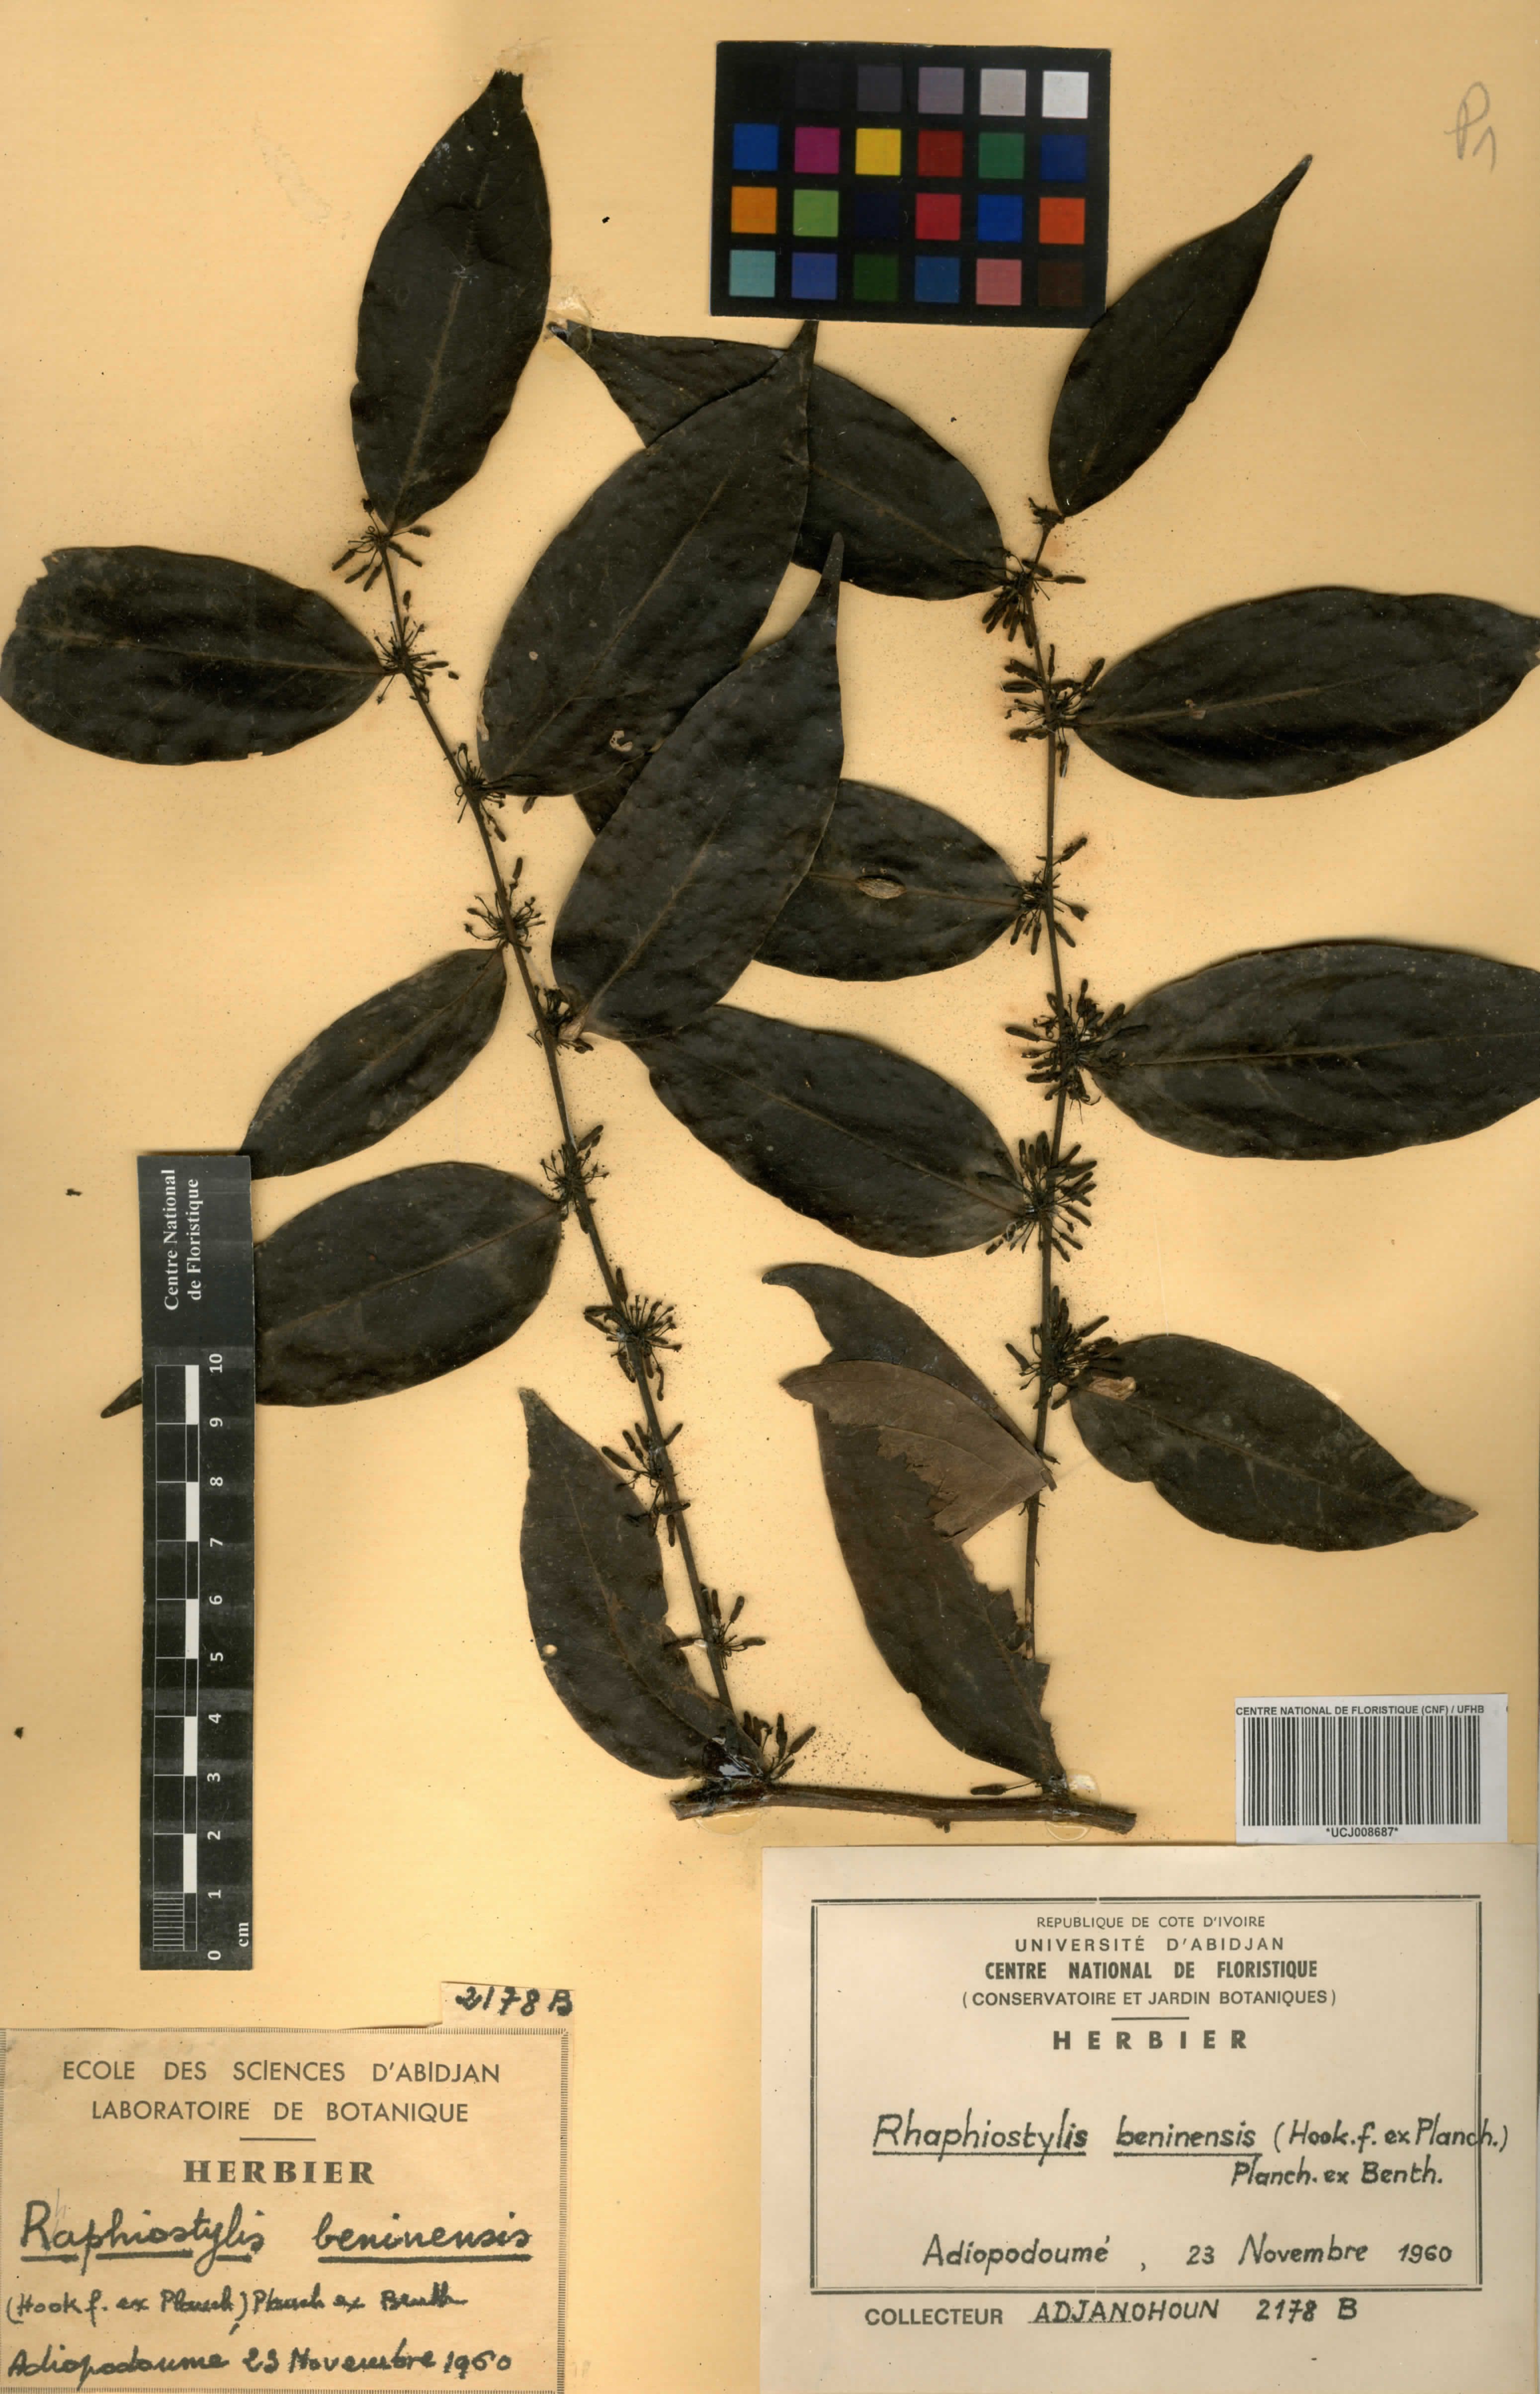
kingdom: Plantae
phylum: Tracheophyta
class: Magnoliopsida
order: Metteniusales
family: Metteniusaceae
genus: Rhaphiostylis
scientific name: Rhaphiostylis beninensis
